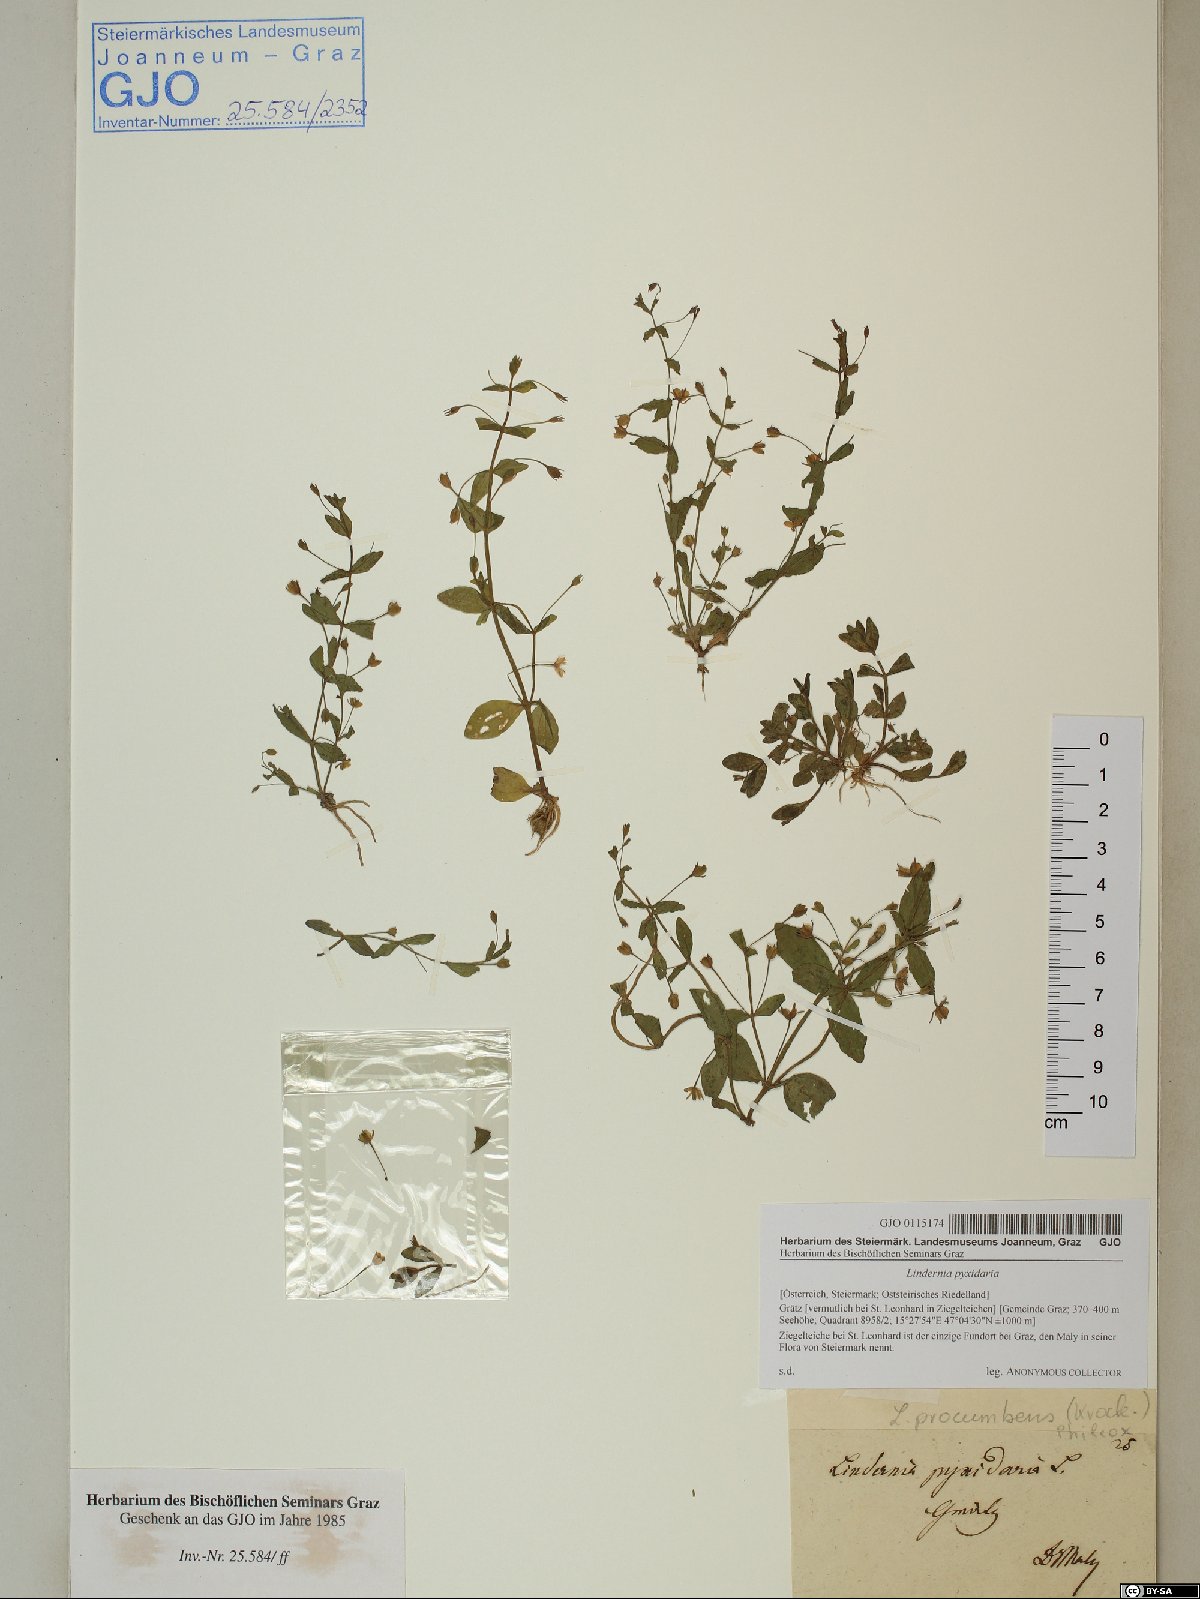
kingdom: Plantae
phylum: Tracheophyta
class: Magnoliopsida
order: Lamiales
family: Linderniaceae
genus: Lindernia
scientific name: Lindernia dubia
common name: Annual false pimpernel
